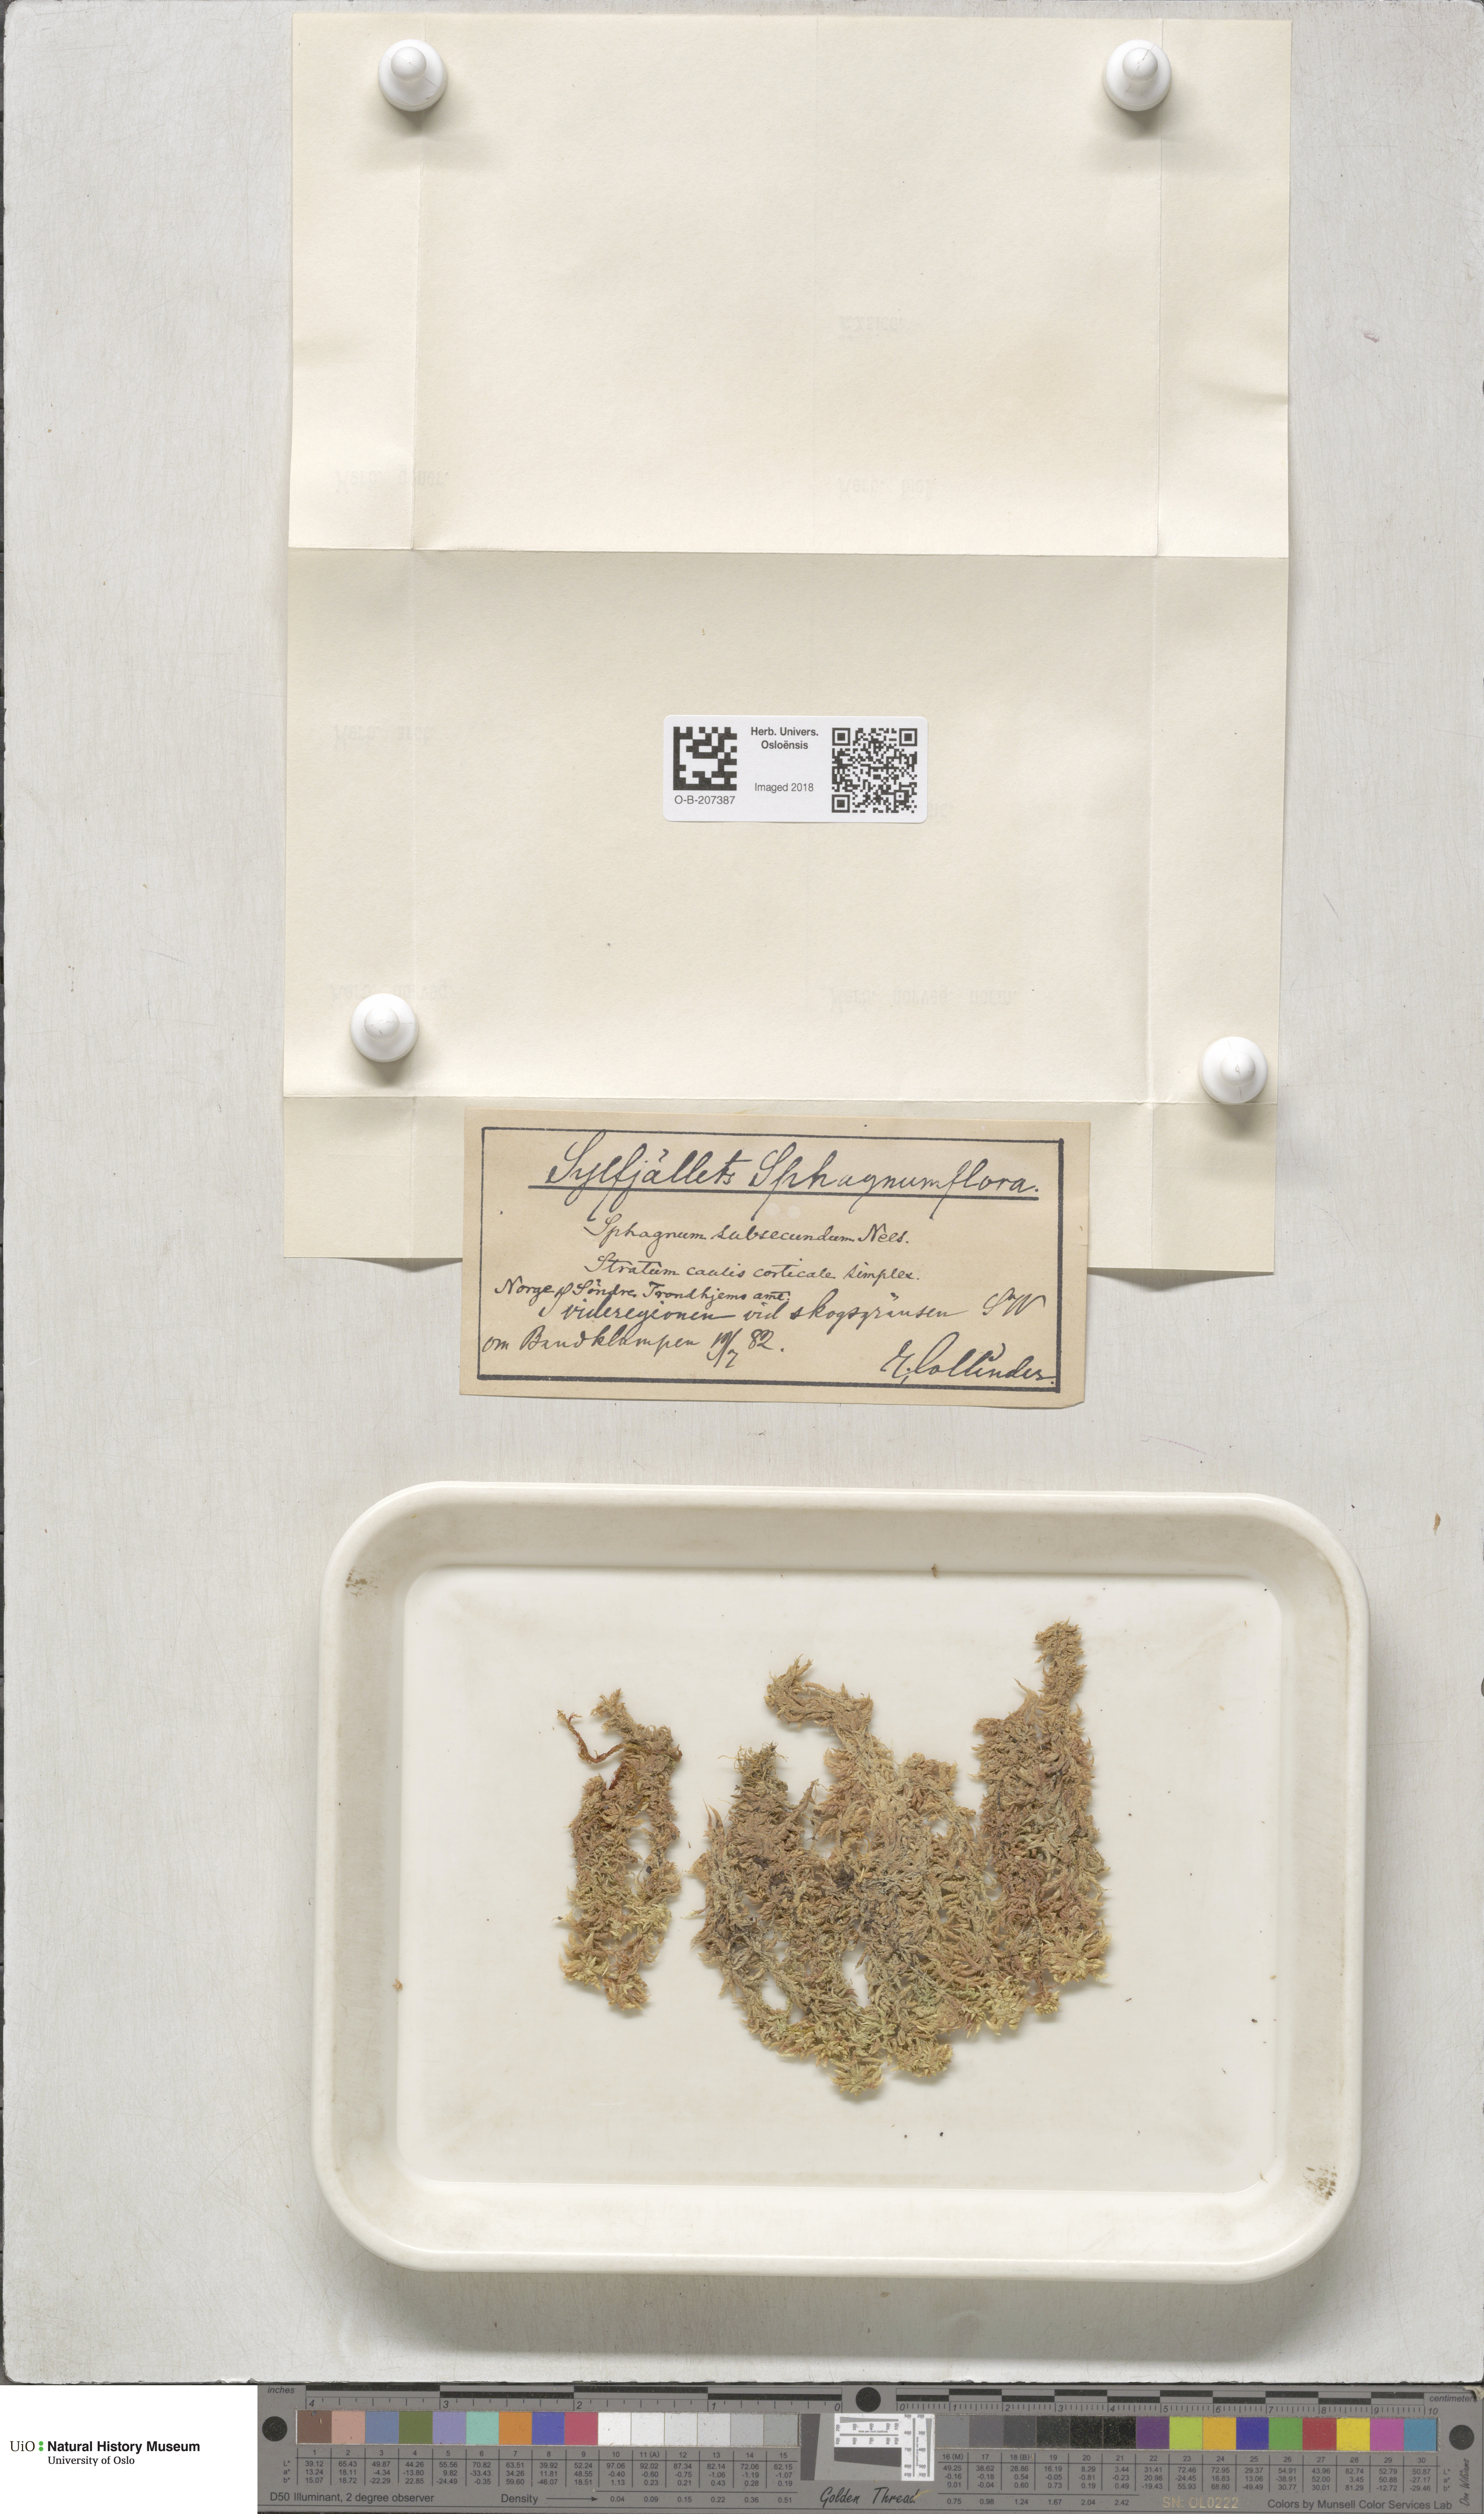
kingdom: Plantae
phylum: Bryophyta
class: Sphagnopsida
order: Sphagnales
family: Sphagnaceae
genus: Sphagnum
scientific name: Sphagnum subsecundum
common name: Orange peat moss
